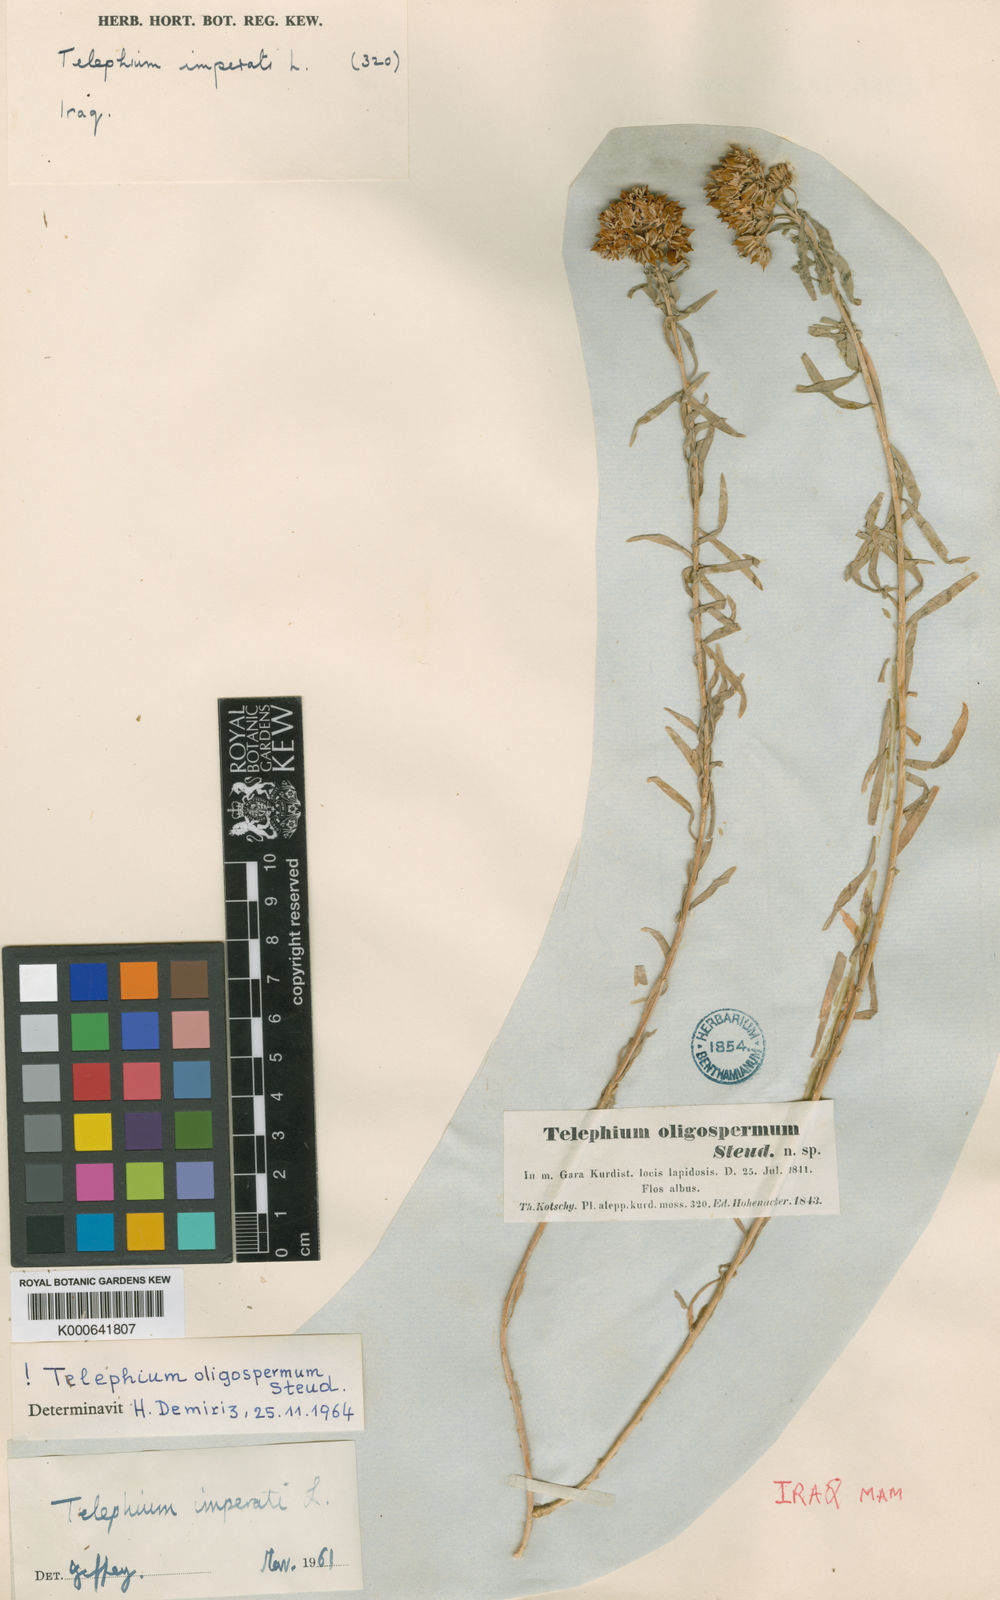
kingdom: Plantae
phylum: Tracheophyta
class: Magnoliopsida
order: Caryophyllales
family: Caryophyllaceae
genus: Telephium
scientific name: Telephium oligospermum
